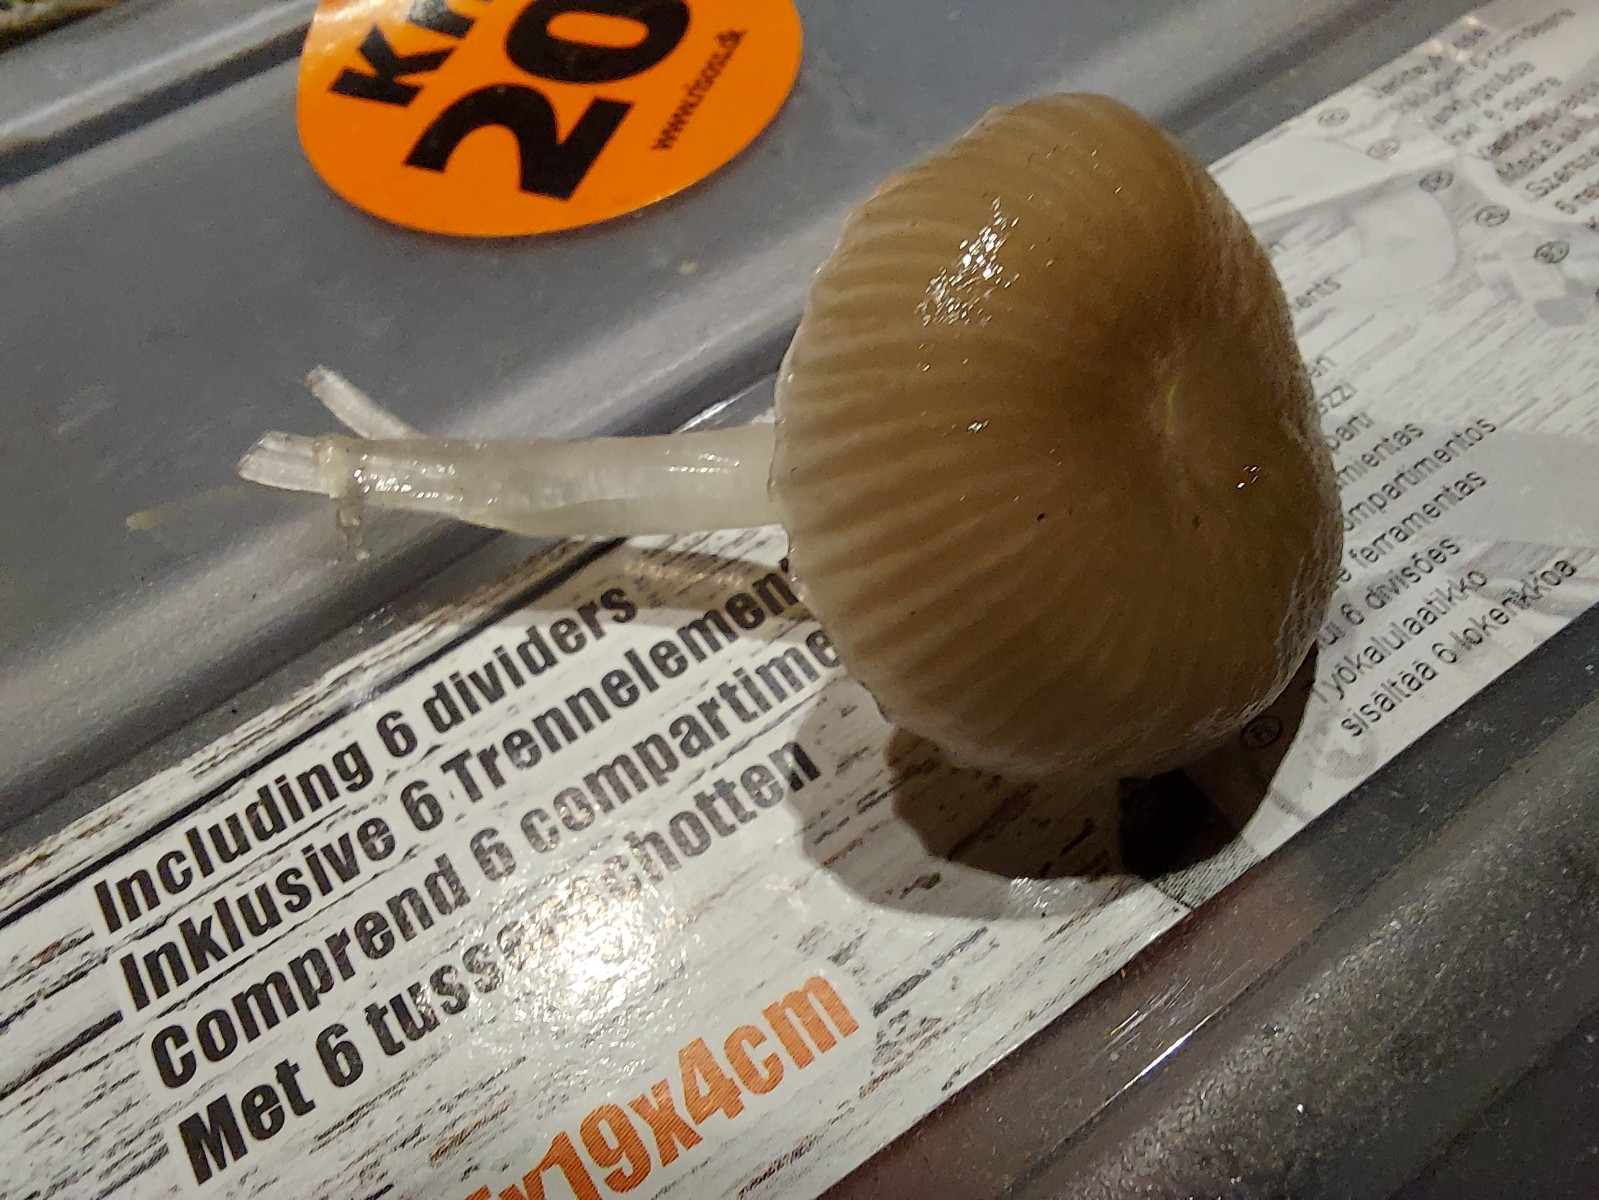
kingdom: Fungi
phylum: Basidiomycota
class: Agaricomycetes
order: Agaricales
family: Mycenaceae
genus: Mycena
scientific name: Mycena vulgaris
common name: klæbrig huesvamp
